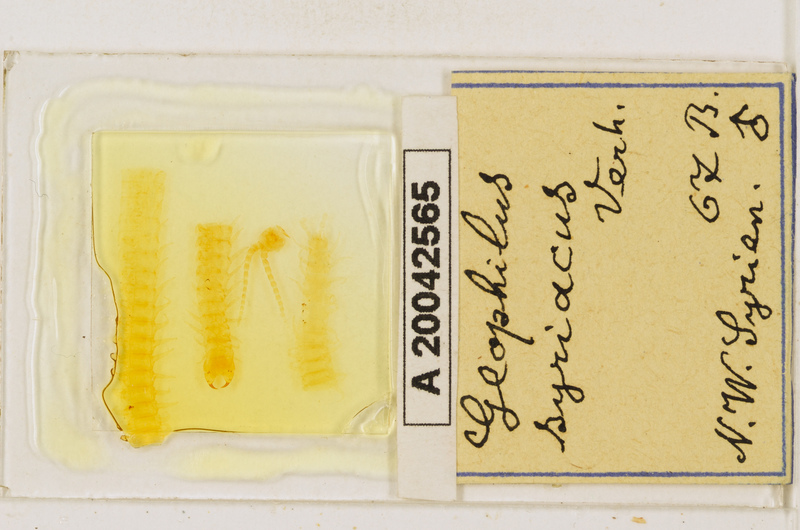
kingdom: Animalia
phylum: Arthropoda
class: Chilopoda
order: Geophilomorpha
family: Geophilidae
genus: Pachymerium
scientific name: Pachymerium syriacum
